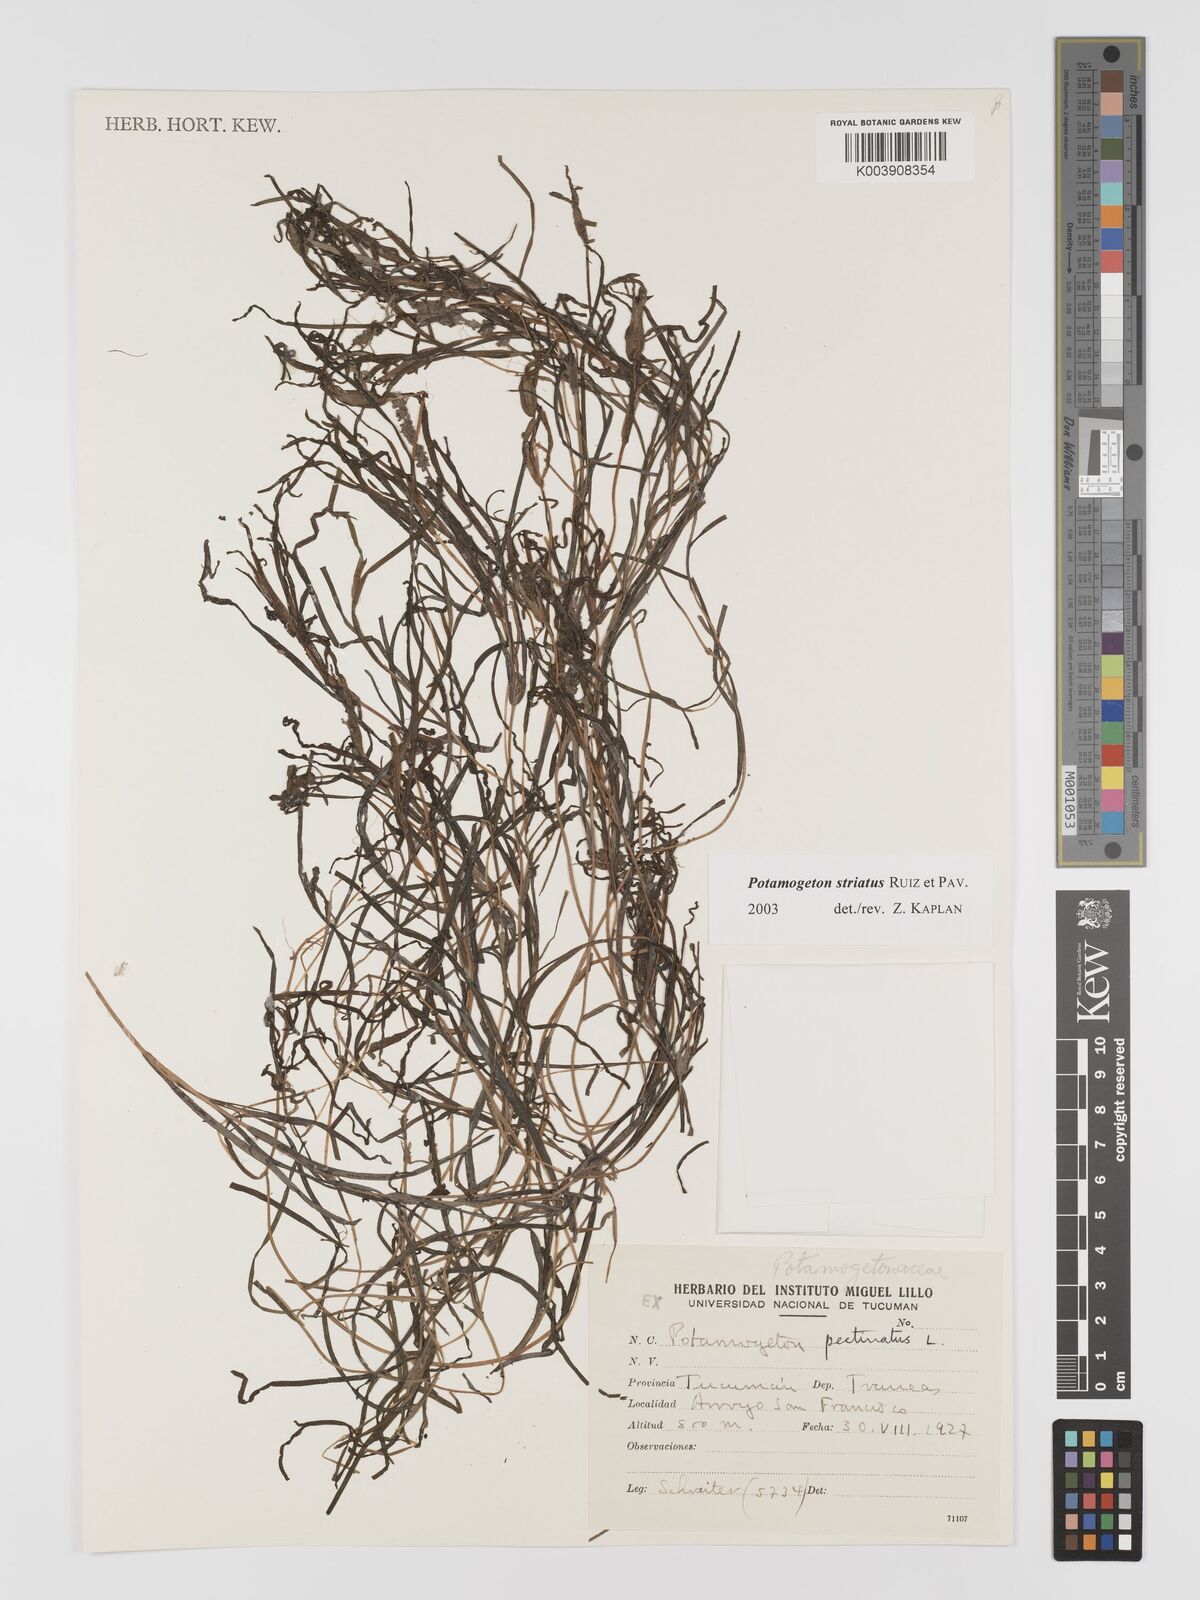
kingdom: Plantae
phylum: Tracheophyta
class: Liliopsida
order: Alismatales
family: Potamogetonaceae
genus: Stuckenia
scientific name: Stuckenia striata
